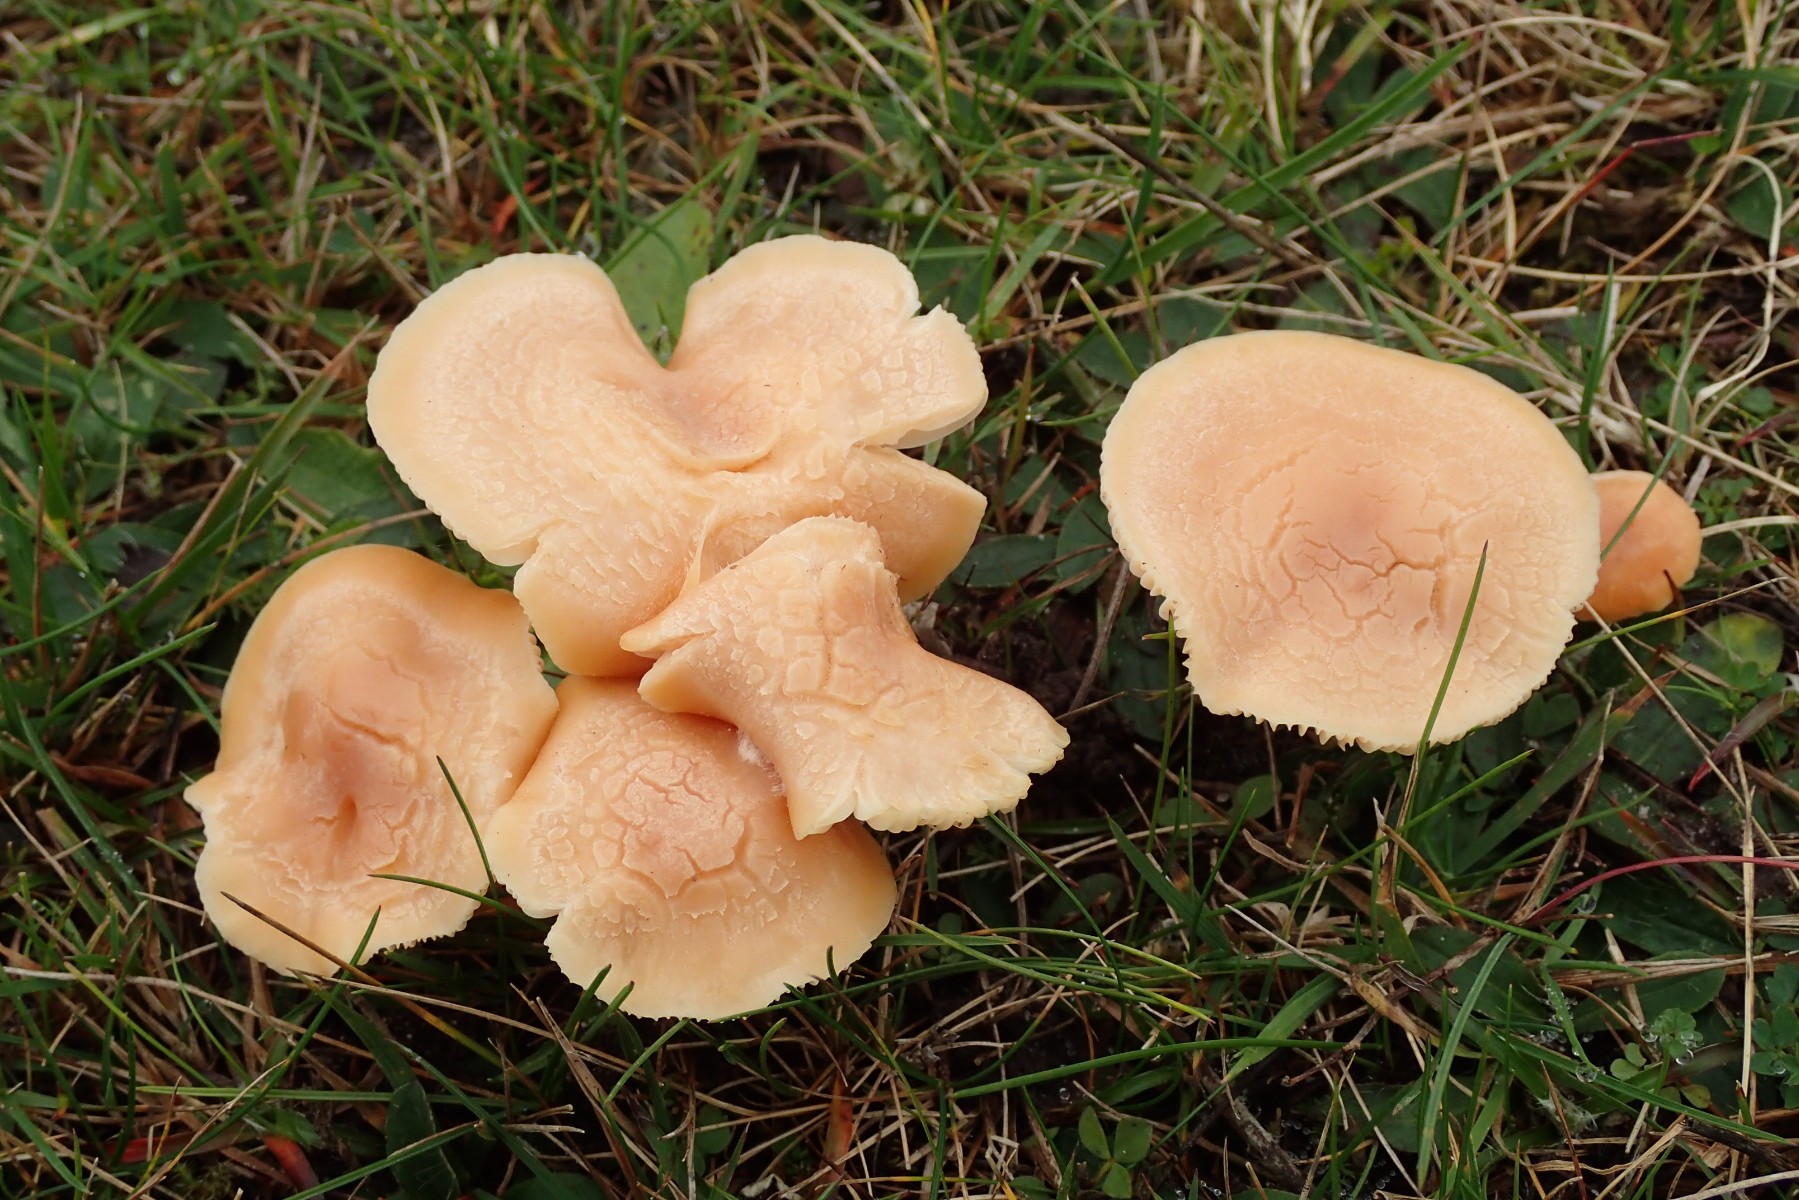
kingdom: Fungi
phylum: Basidiomycota
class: Agaricomycetes
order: Agaricales
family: Hygrophoraceae
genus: Cuphophyllus
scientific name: Cuphophyllus pratensis
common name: eng-vokshat
